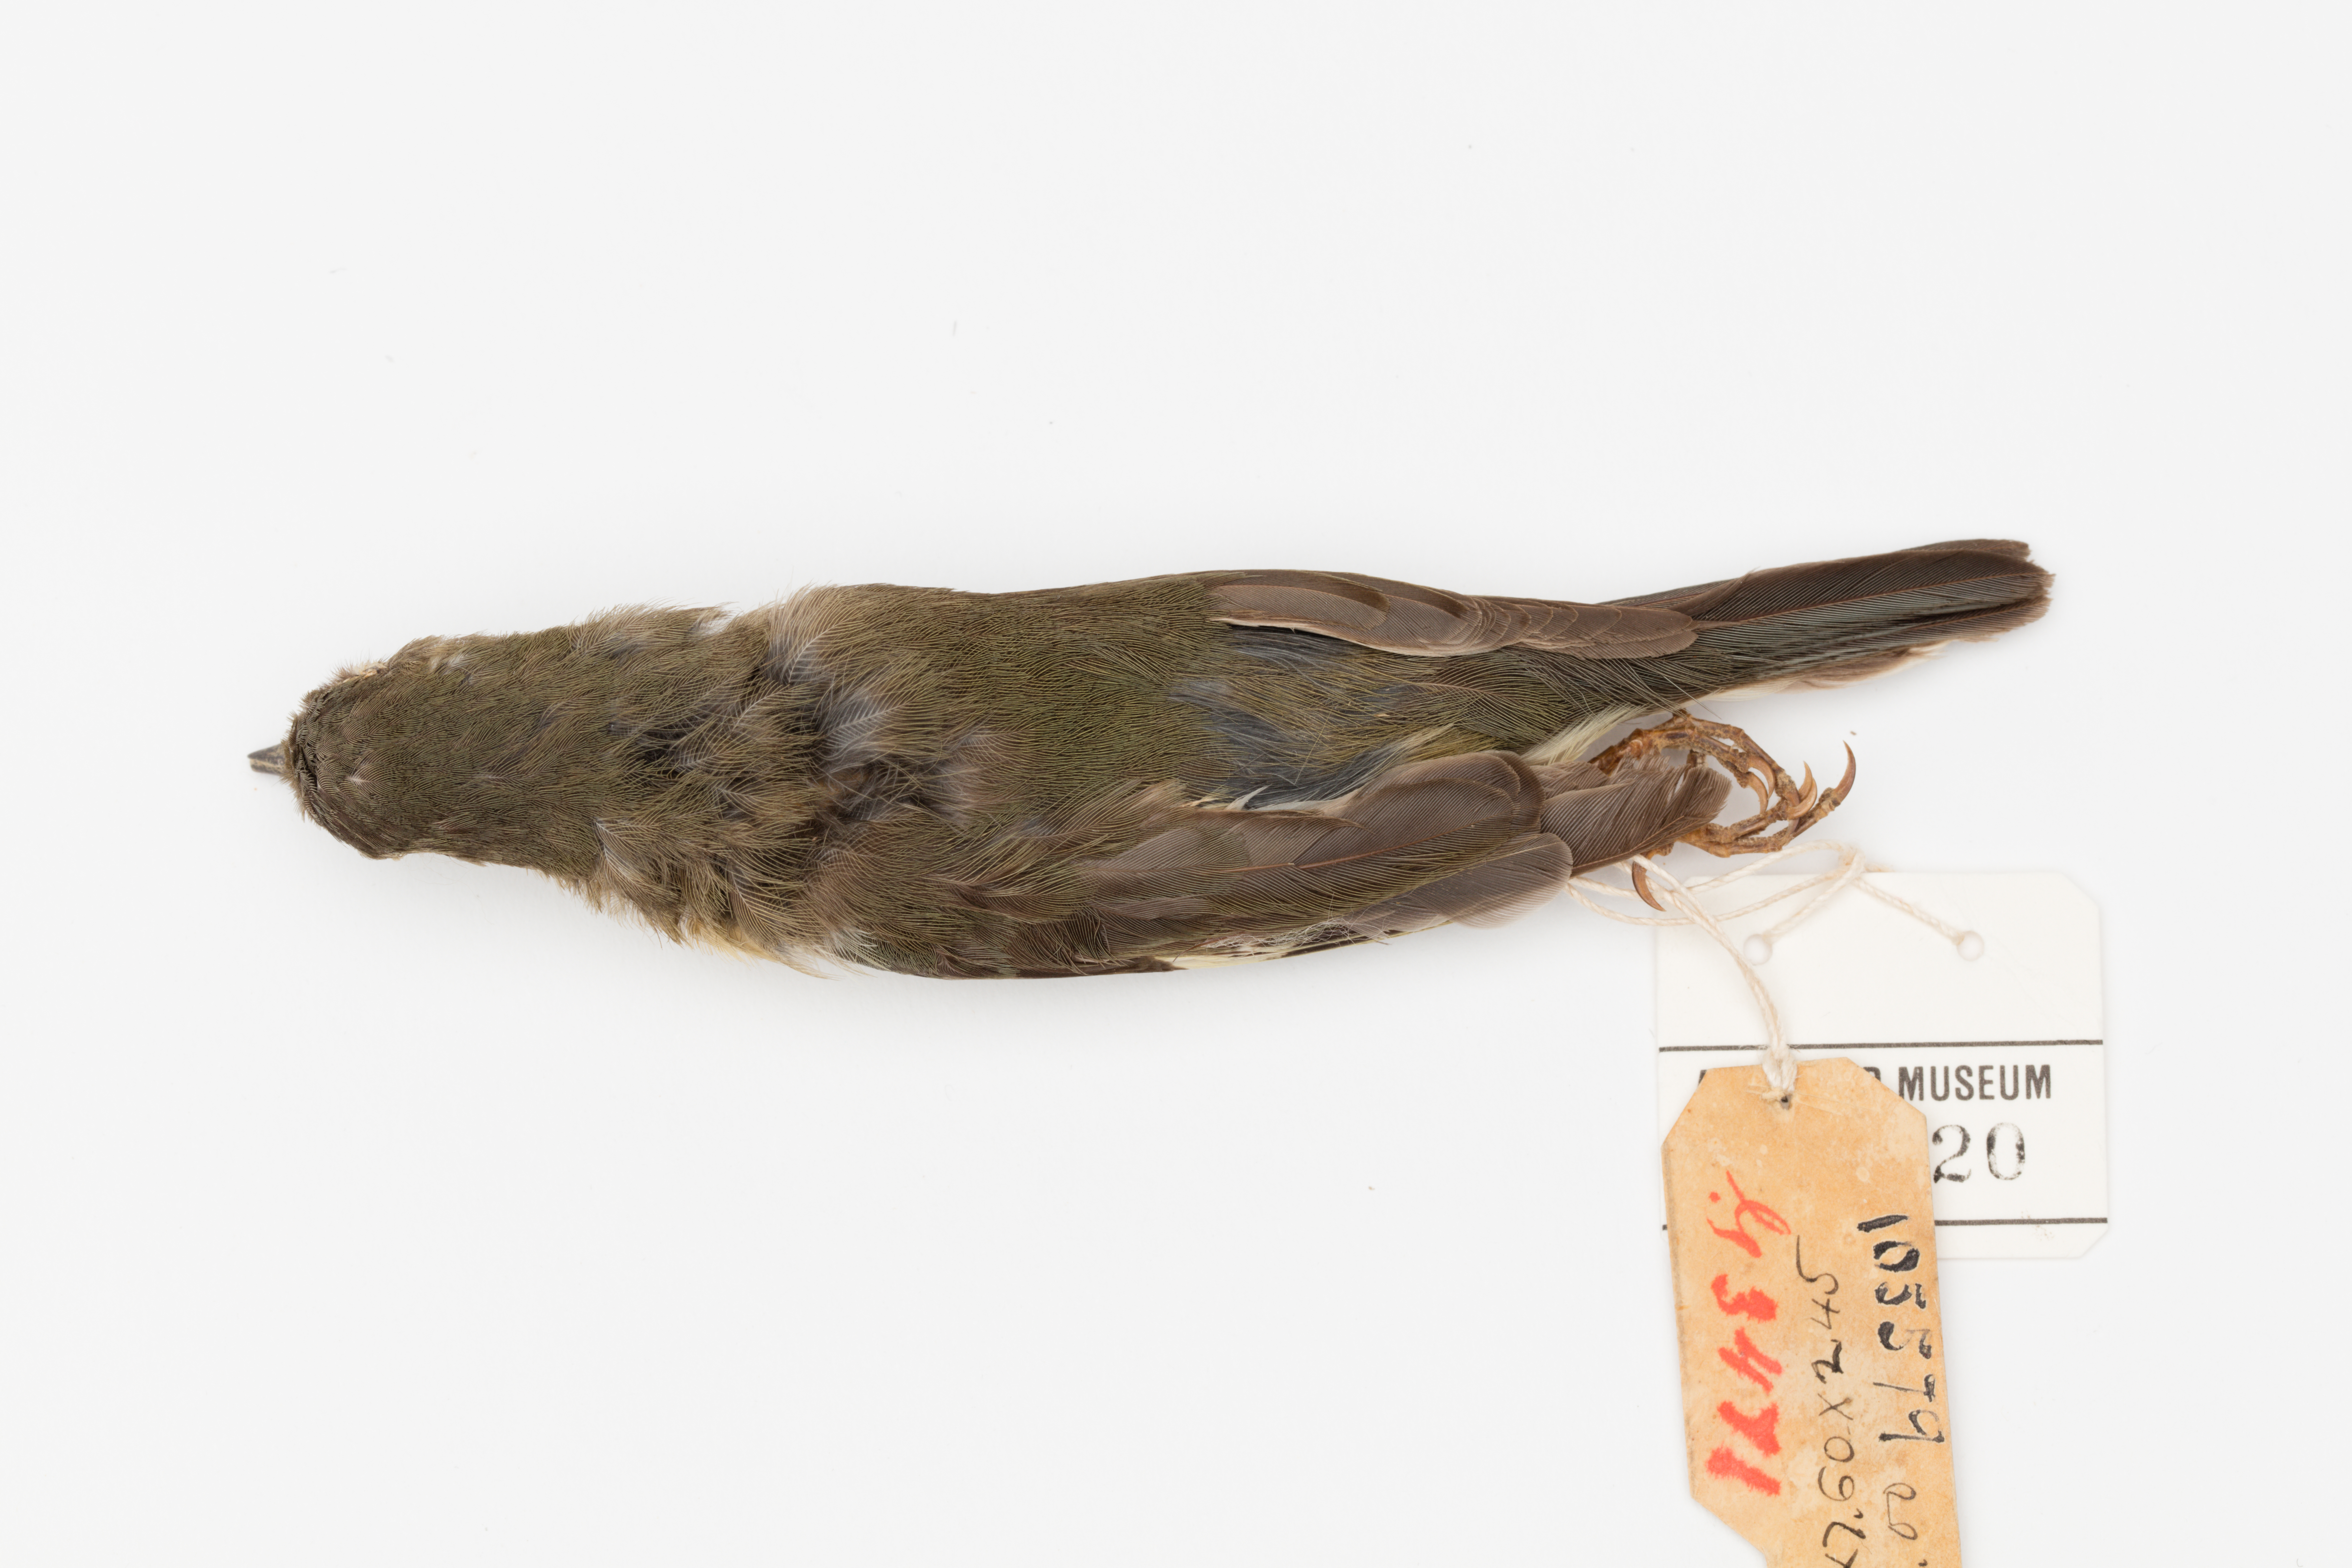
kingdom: Animalia
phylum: Chordata
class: Aves
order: Passeriformes
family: Parulidae
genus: Setophaga
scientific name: Setophaga caerulescens
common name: Black-throated blue warbler
